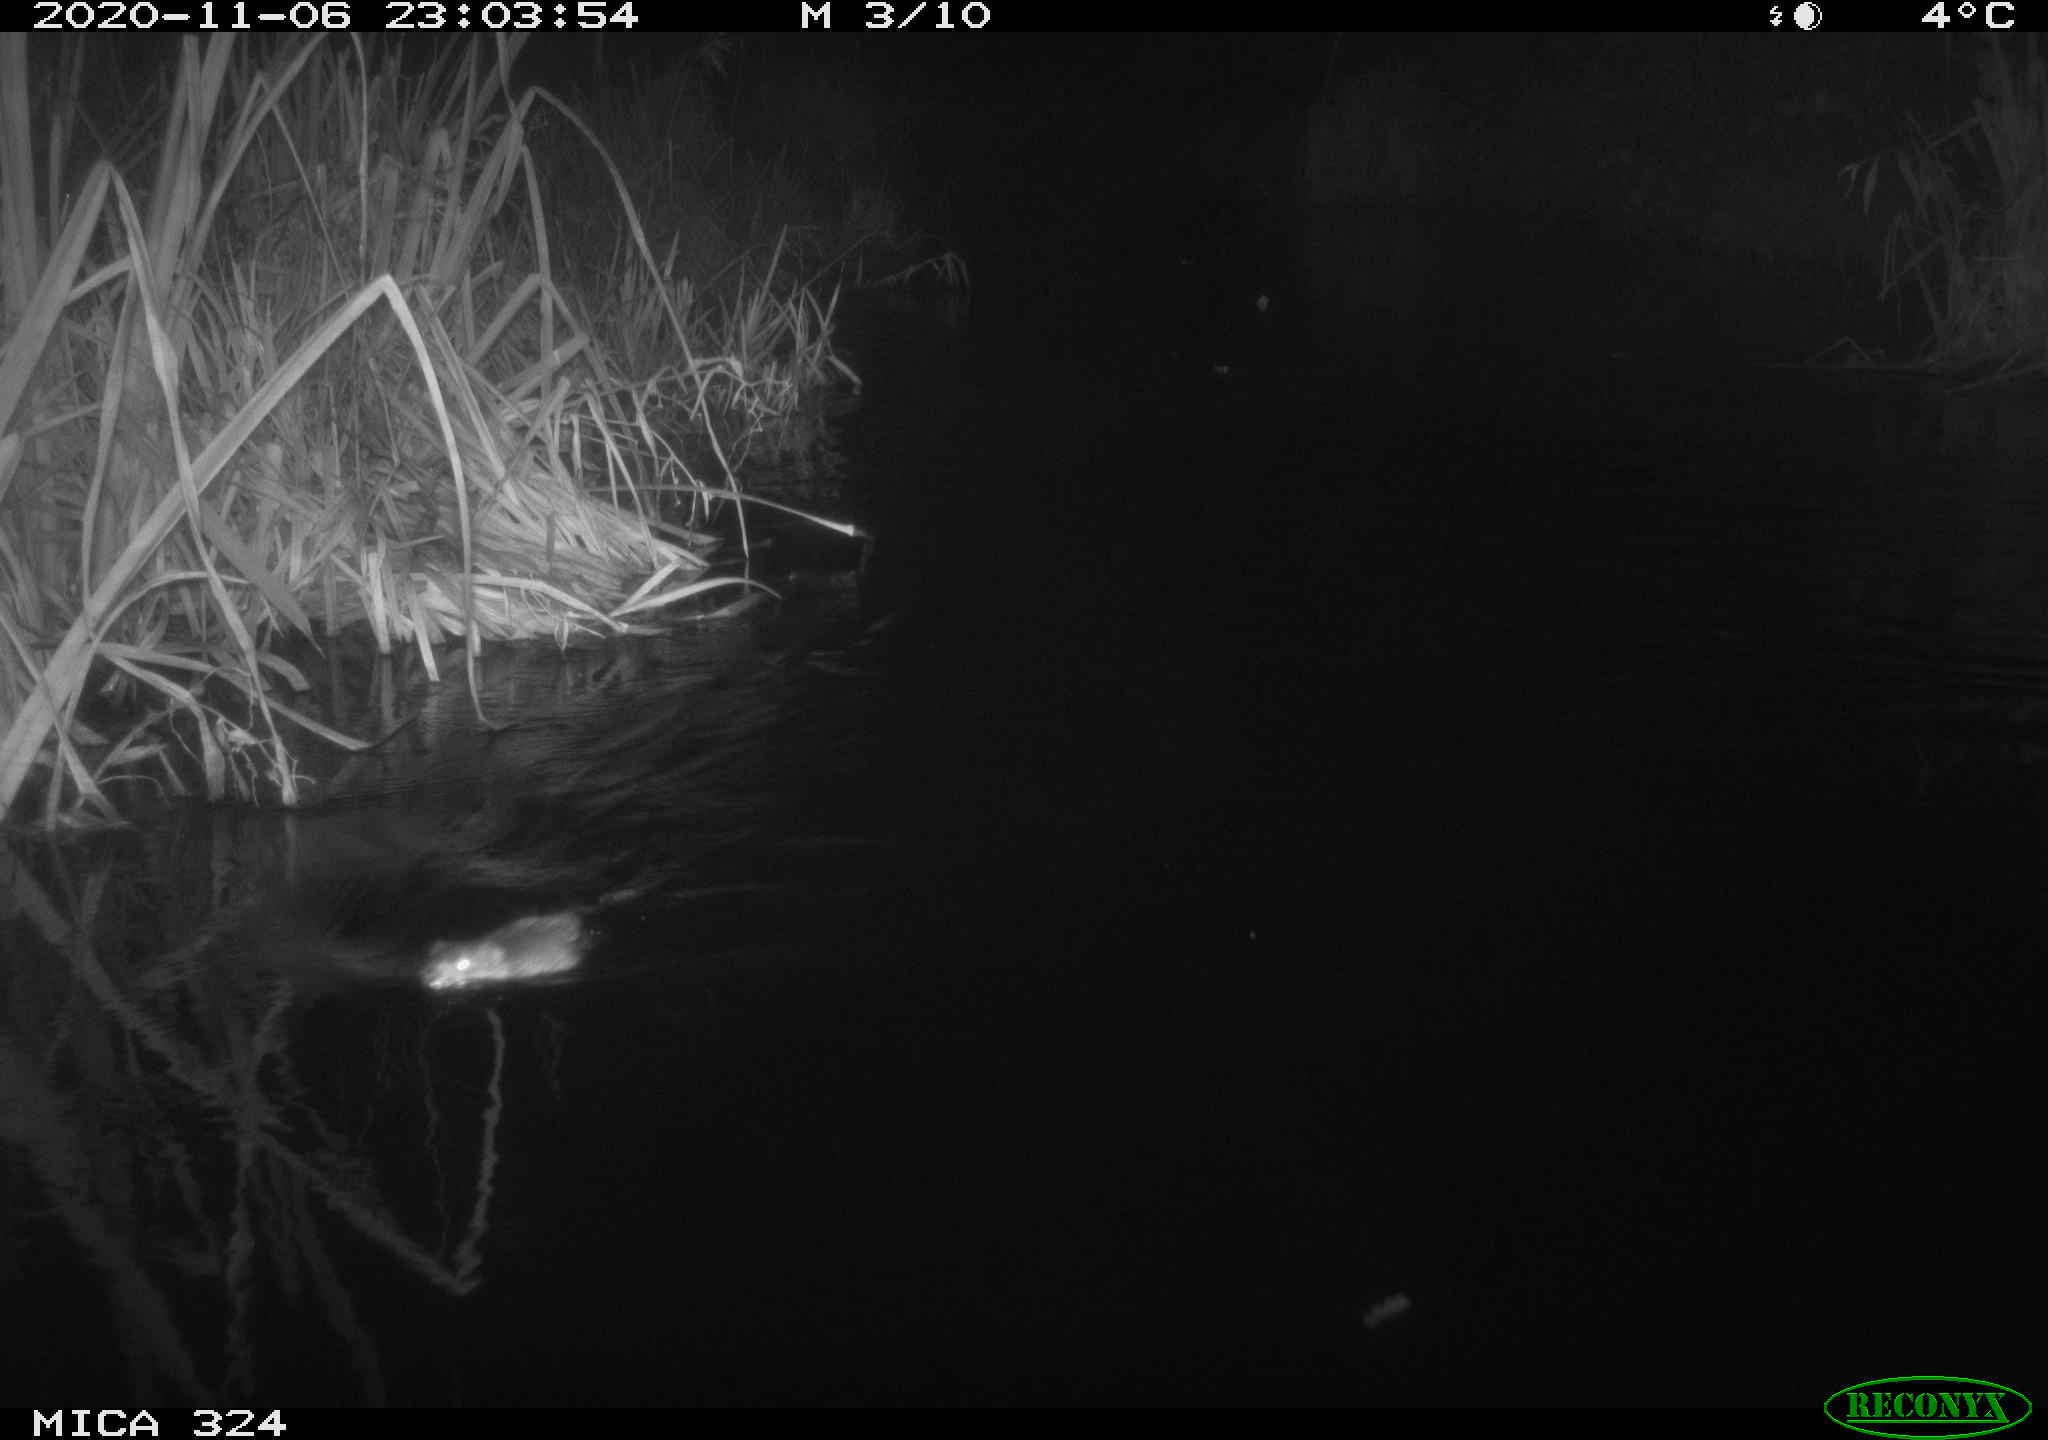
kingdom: Animalia
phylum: Chordata
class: Mammalia
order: Rodentia
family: Cricetidae
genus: Ondatra
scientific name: Ondatra zibethicus
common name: Muskrat
